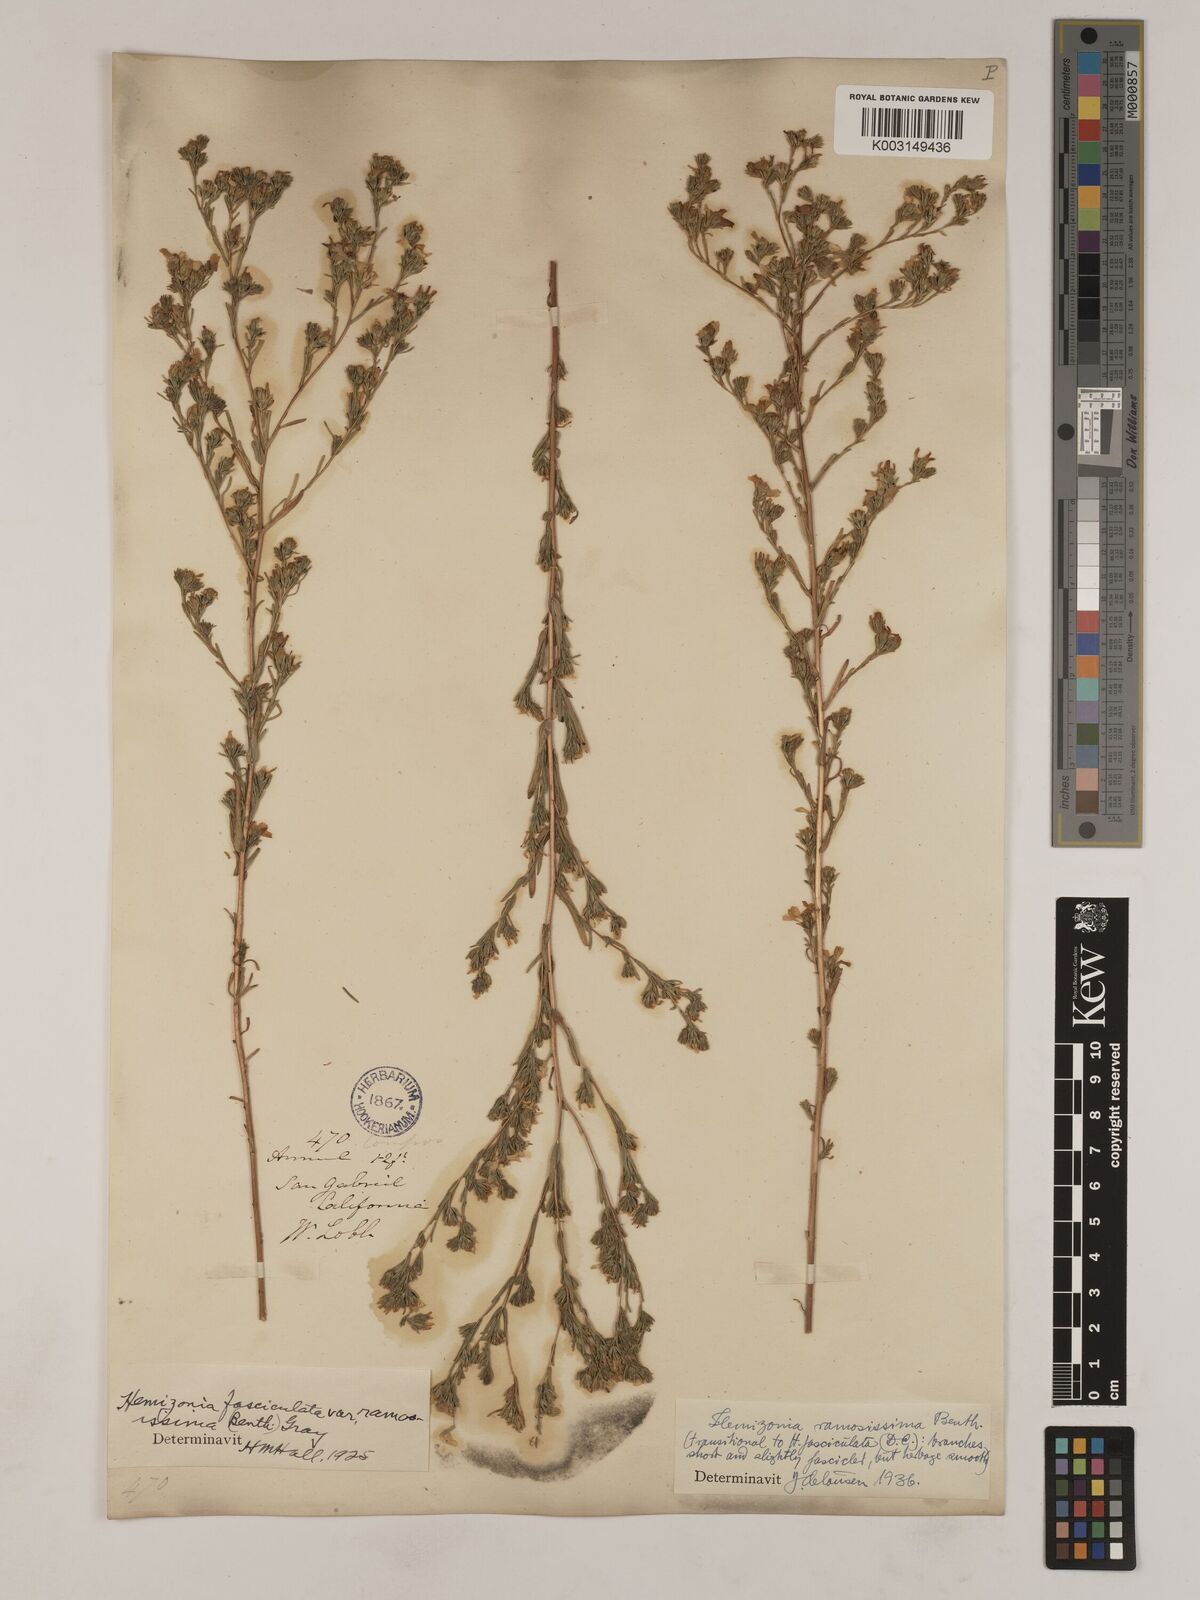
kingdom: Plantae
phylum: Tracheophyta
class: Magnoliopsida
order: Asterales
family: Asteraceae
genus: Deinandra
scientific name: Deinandra fasciculata
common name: Clustered tarweed
